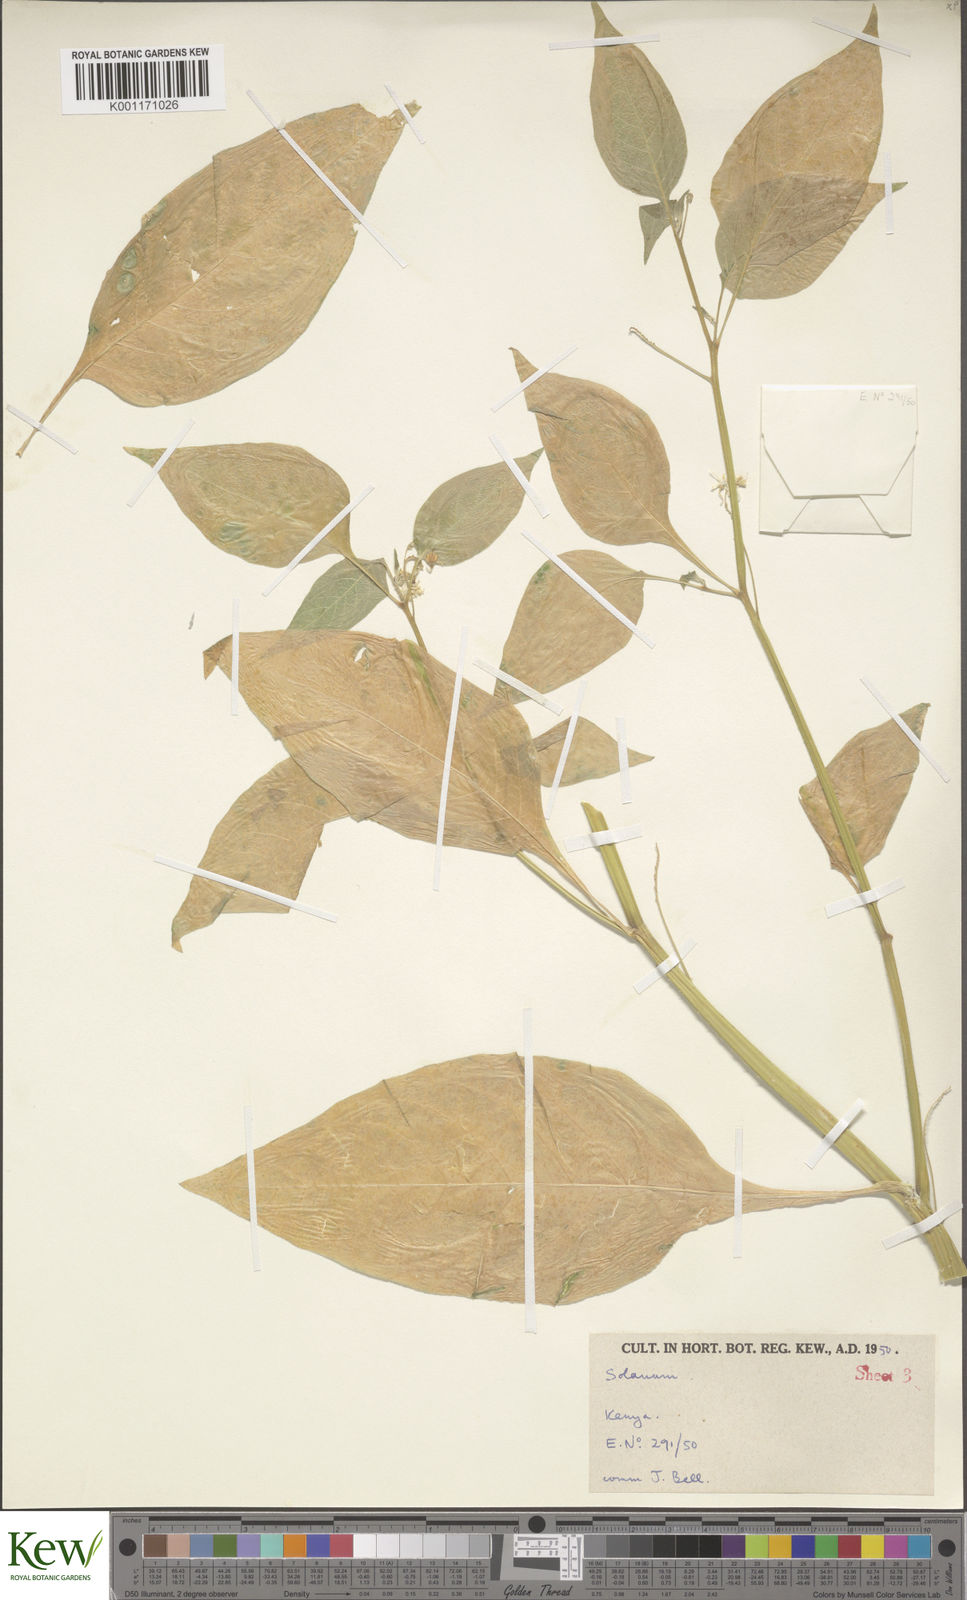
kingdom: Plantae
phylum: Tracheophyta
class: Magnoliopsida
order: Solanales
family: Solanaceae
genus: Solanum
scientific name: Solanum tarderemotum
